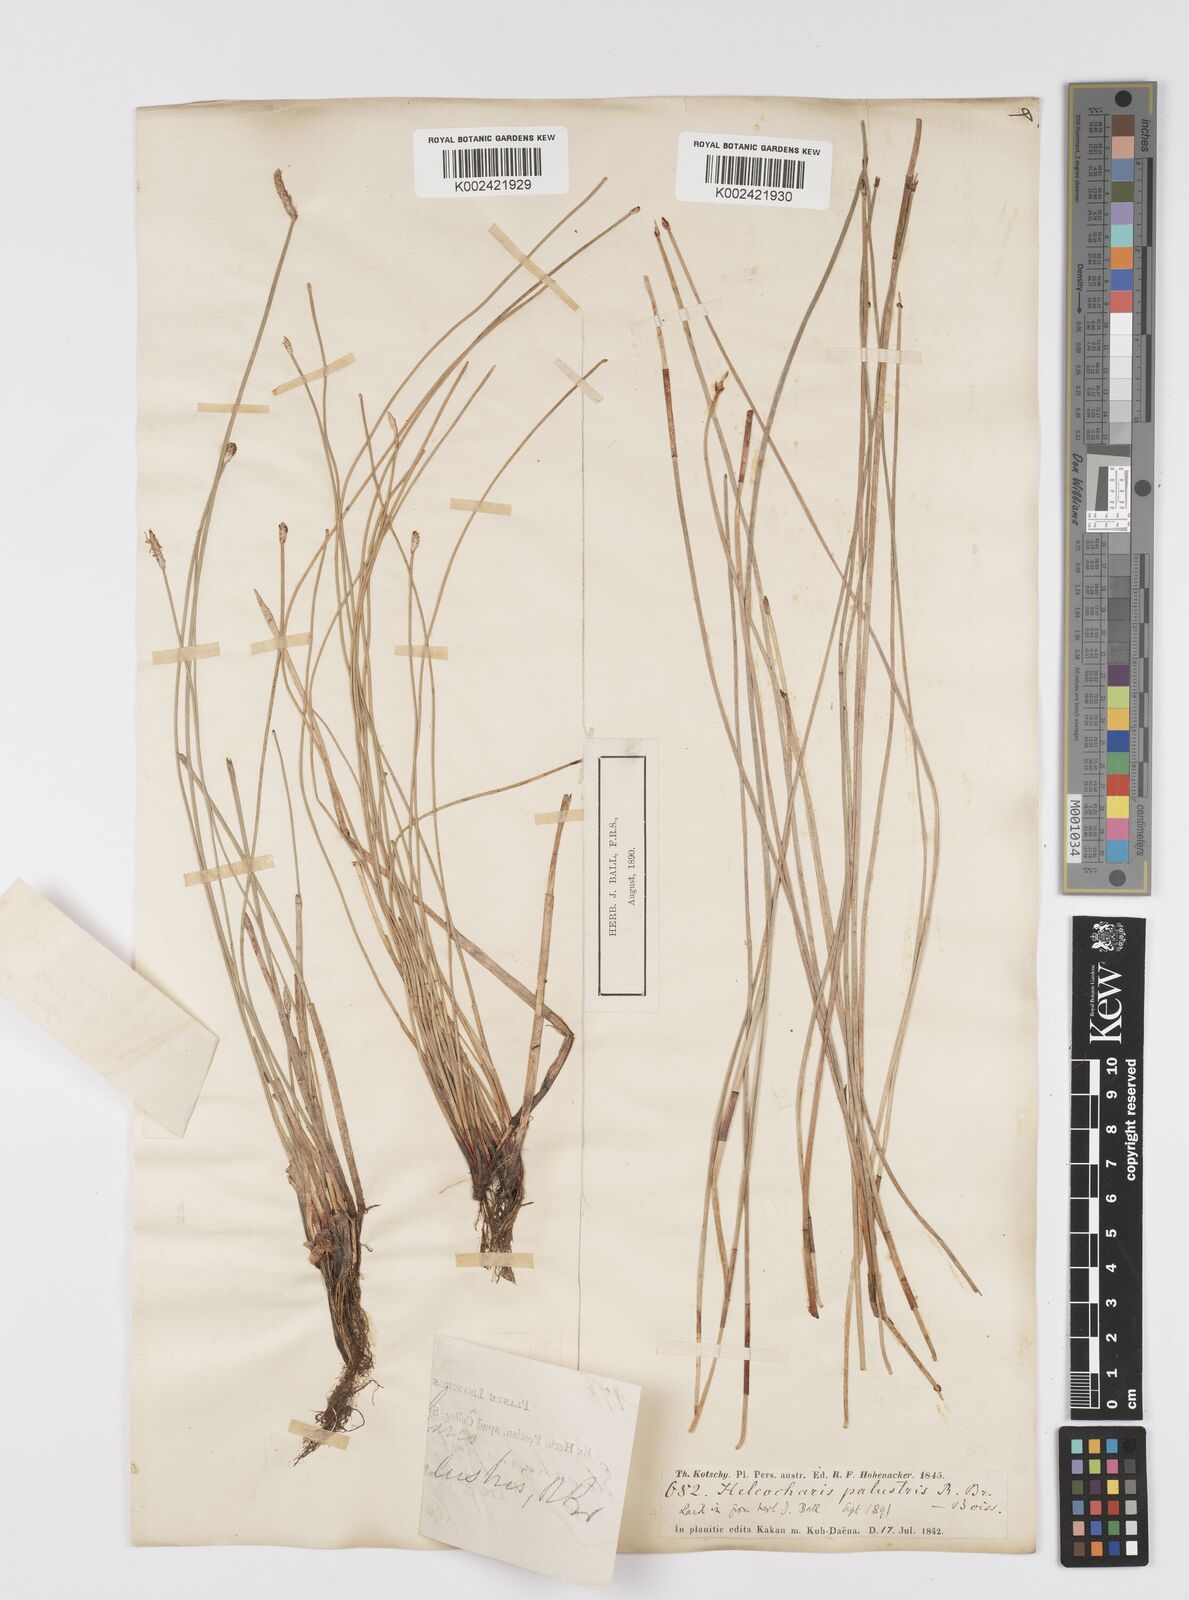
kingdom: Plantae
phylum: Tracheophyta
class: Liliopsida
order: Poales
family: Cyperaceae
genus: Eleocharis
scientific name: Eleocharis palustris
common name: Common spike-rush
